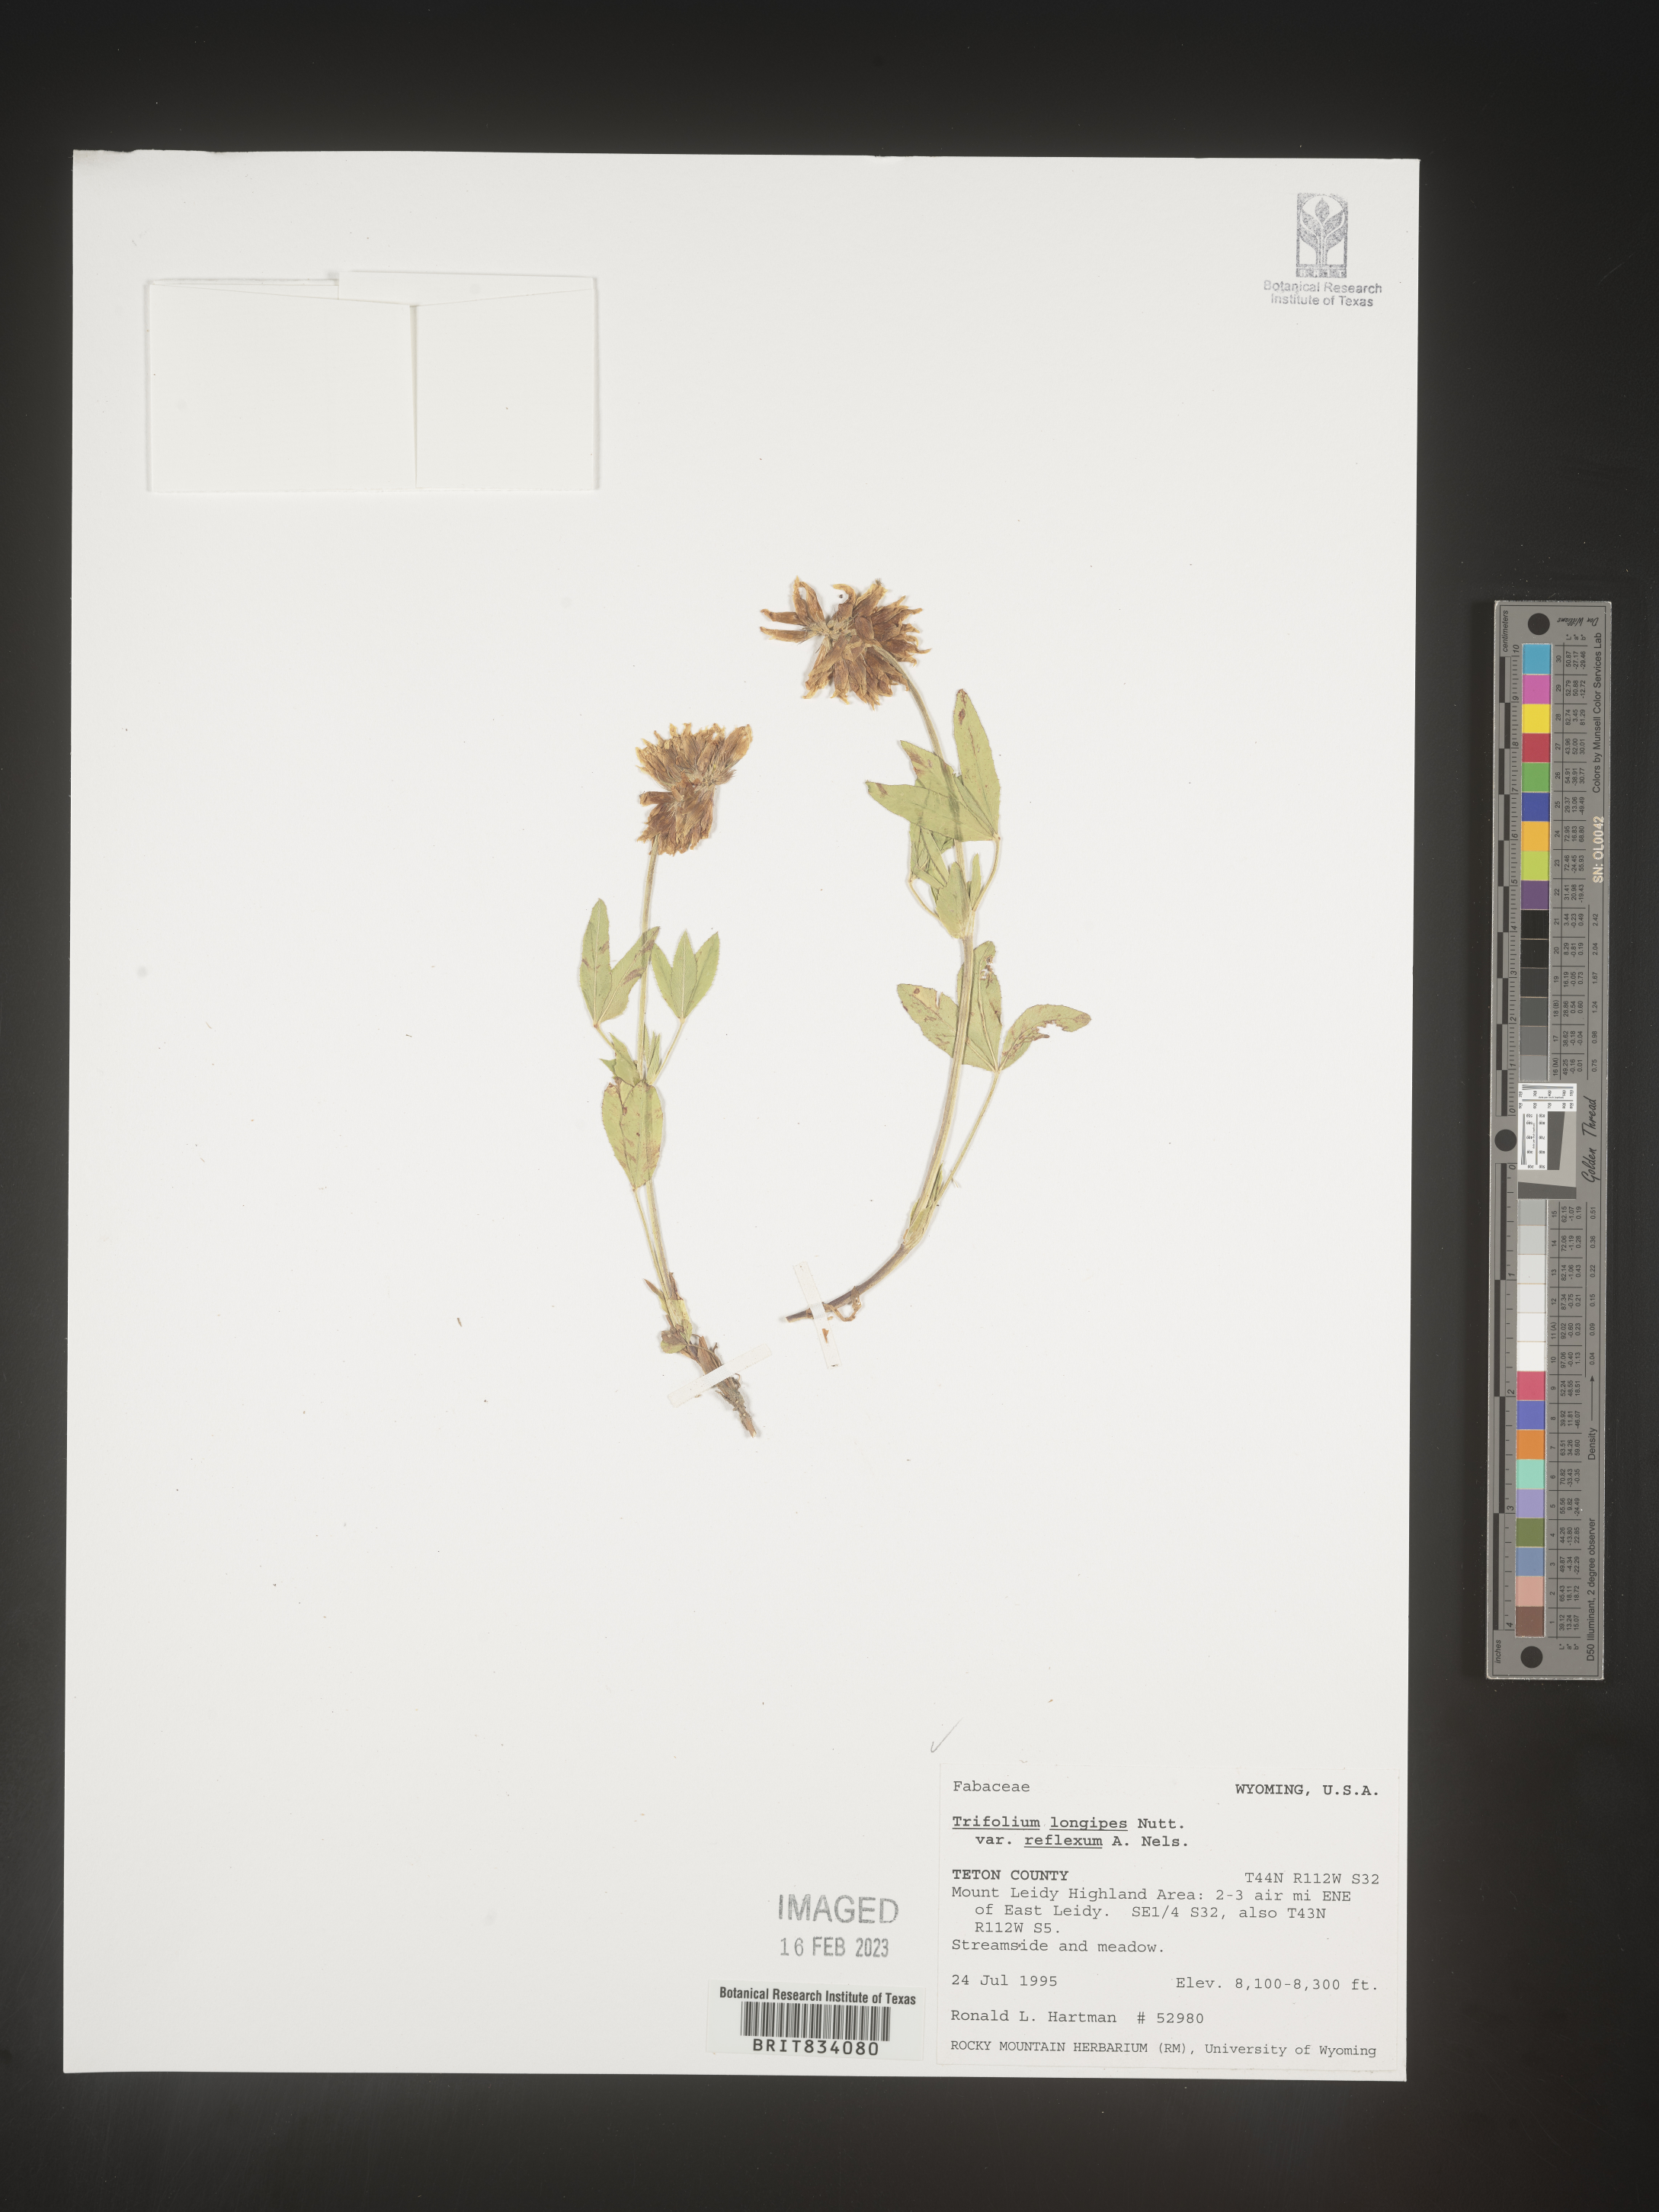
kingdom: Plantae
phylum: Tracheophyta
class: Magnoliopsida
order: Fabales
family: Fabaceae
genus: Trifolium
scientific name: Trifolium
